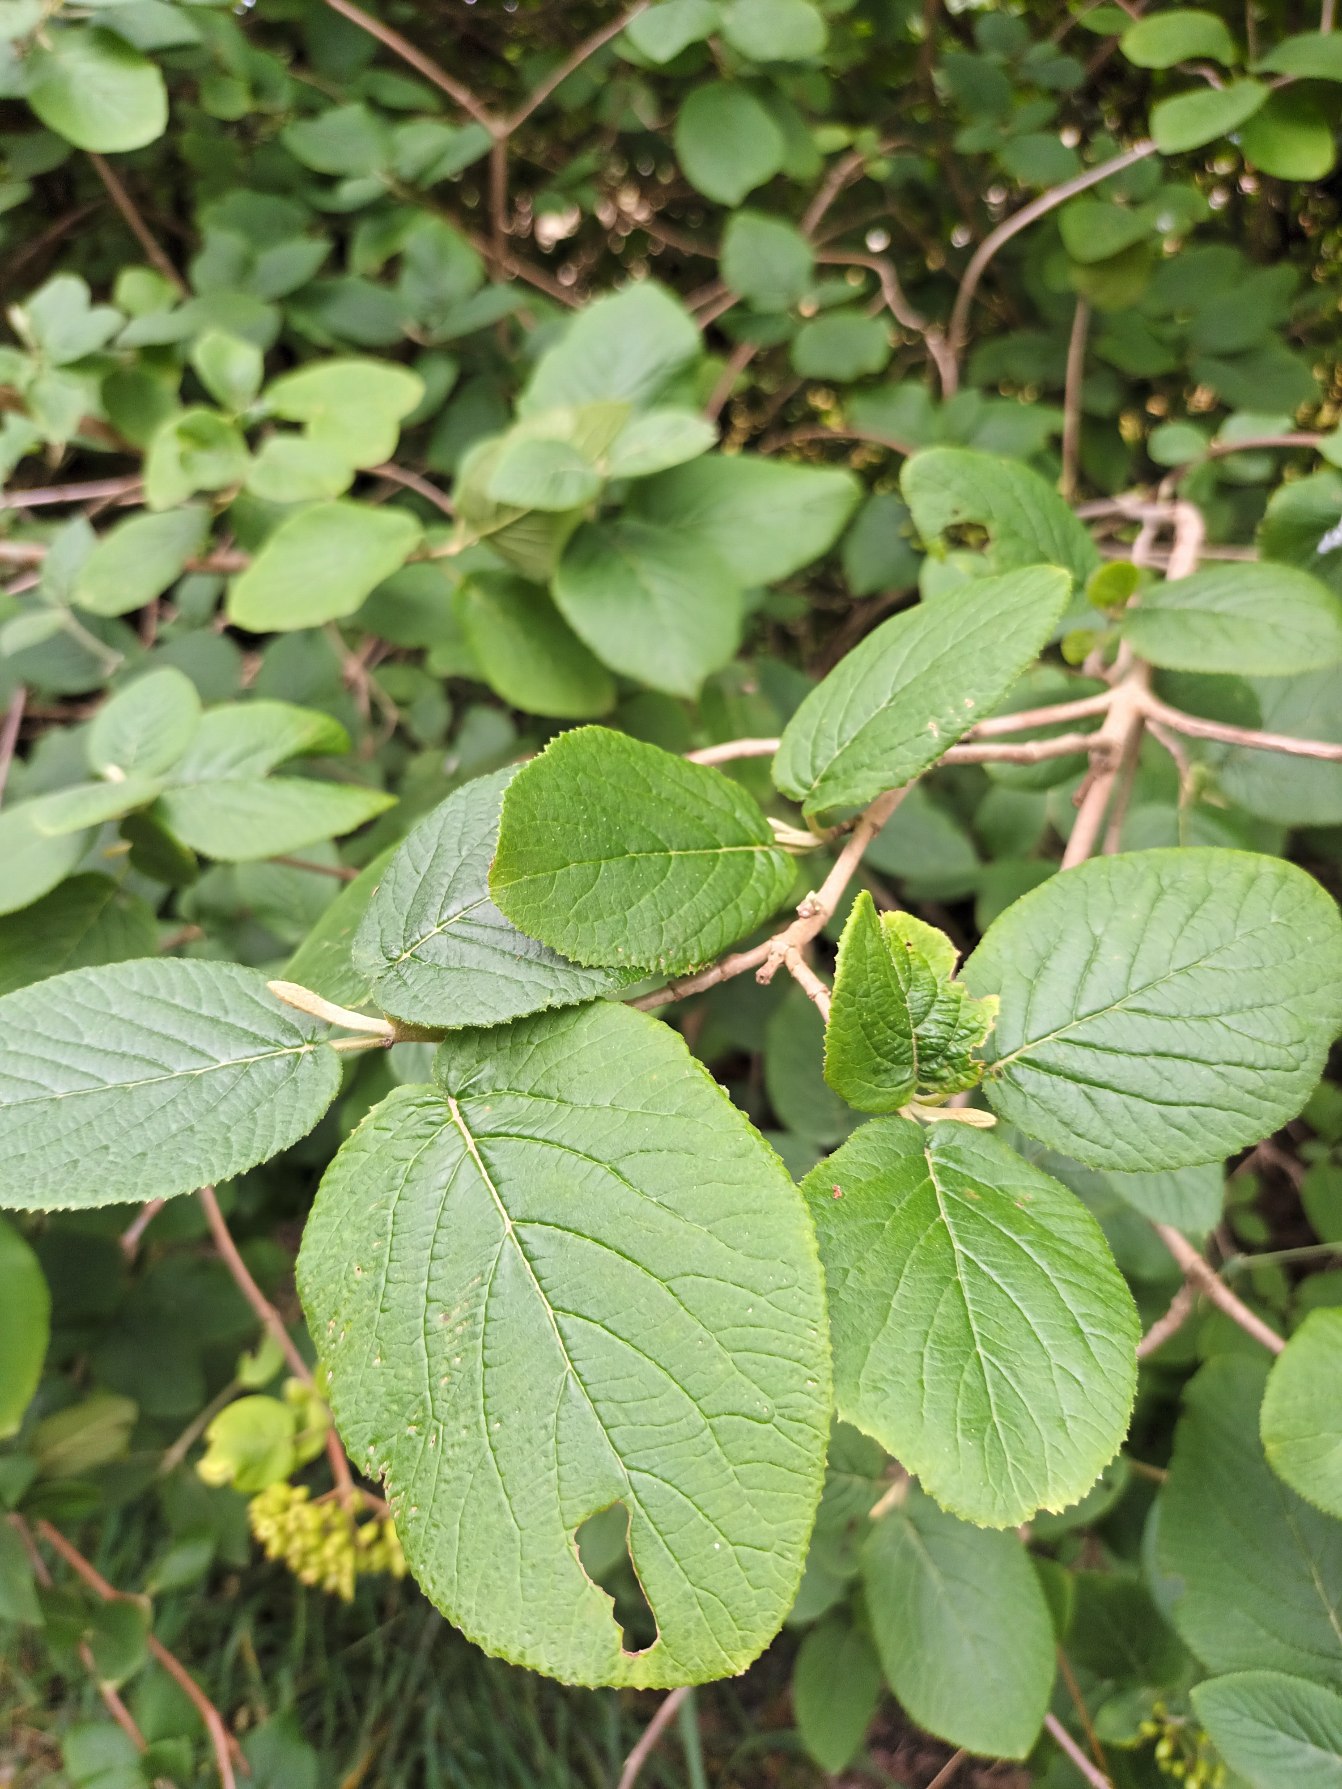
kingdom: Plantae
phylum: Tracheophyta
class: Magnoliopsida
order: Dipsacales
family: Viburnaceae
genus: Viburnum
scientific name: Viburnum lantana
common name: Pibe-kvalkved
